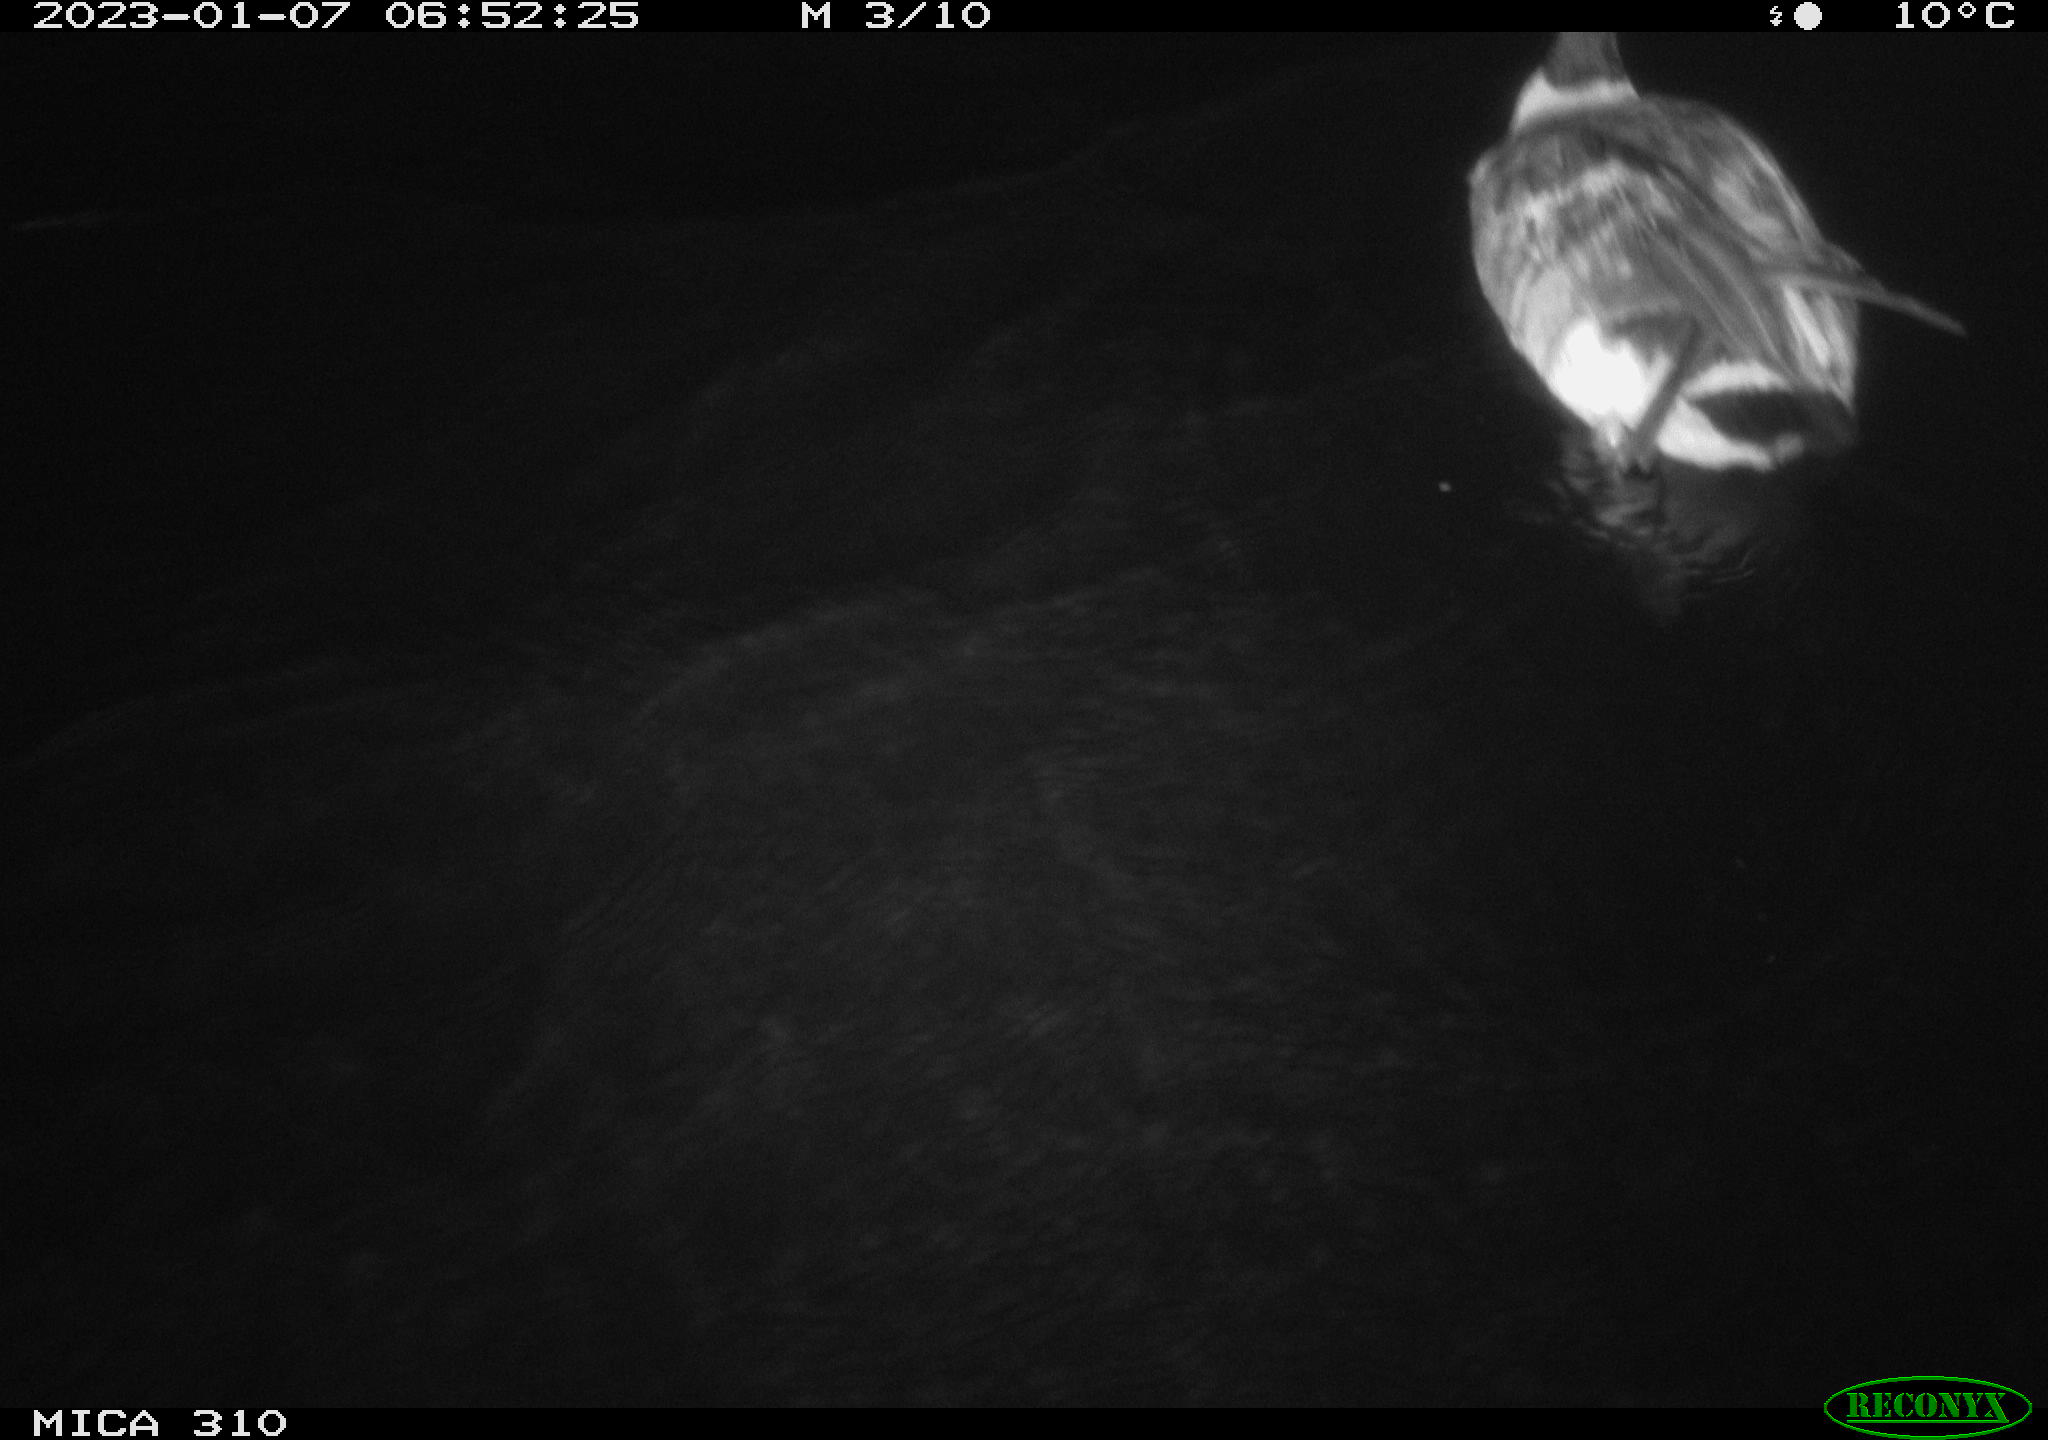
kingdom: Animalia
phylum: Chordata
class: Aves
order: Anseriformes
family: Anatidae
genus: Anas
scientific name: Anas
